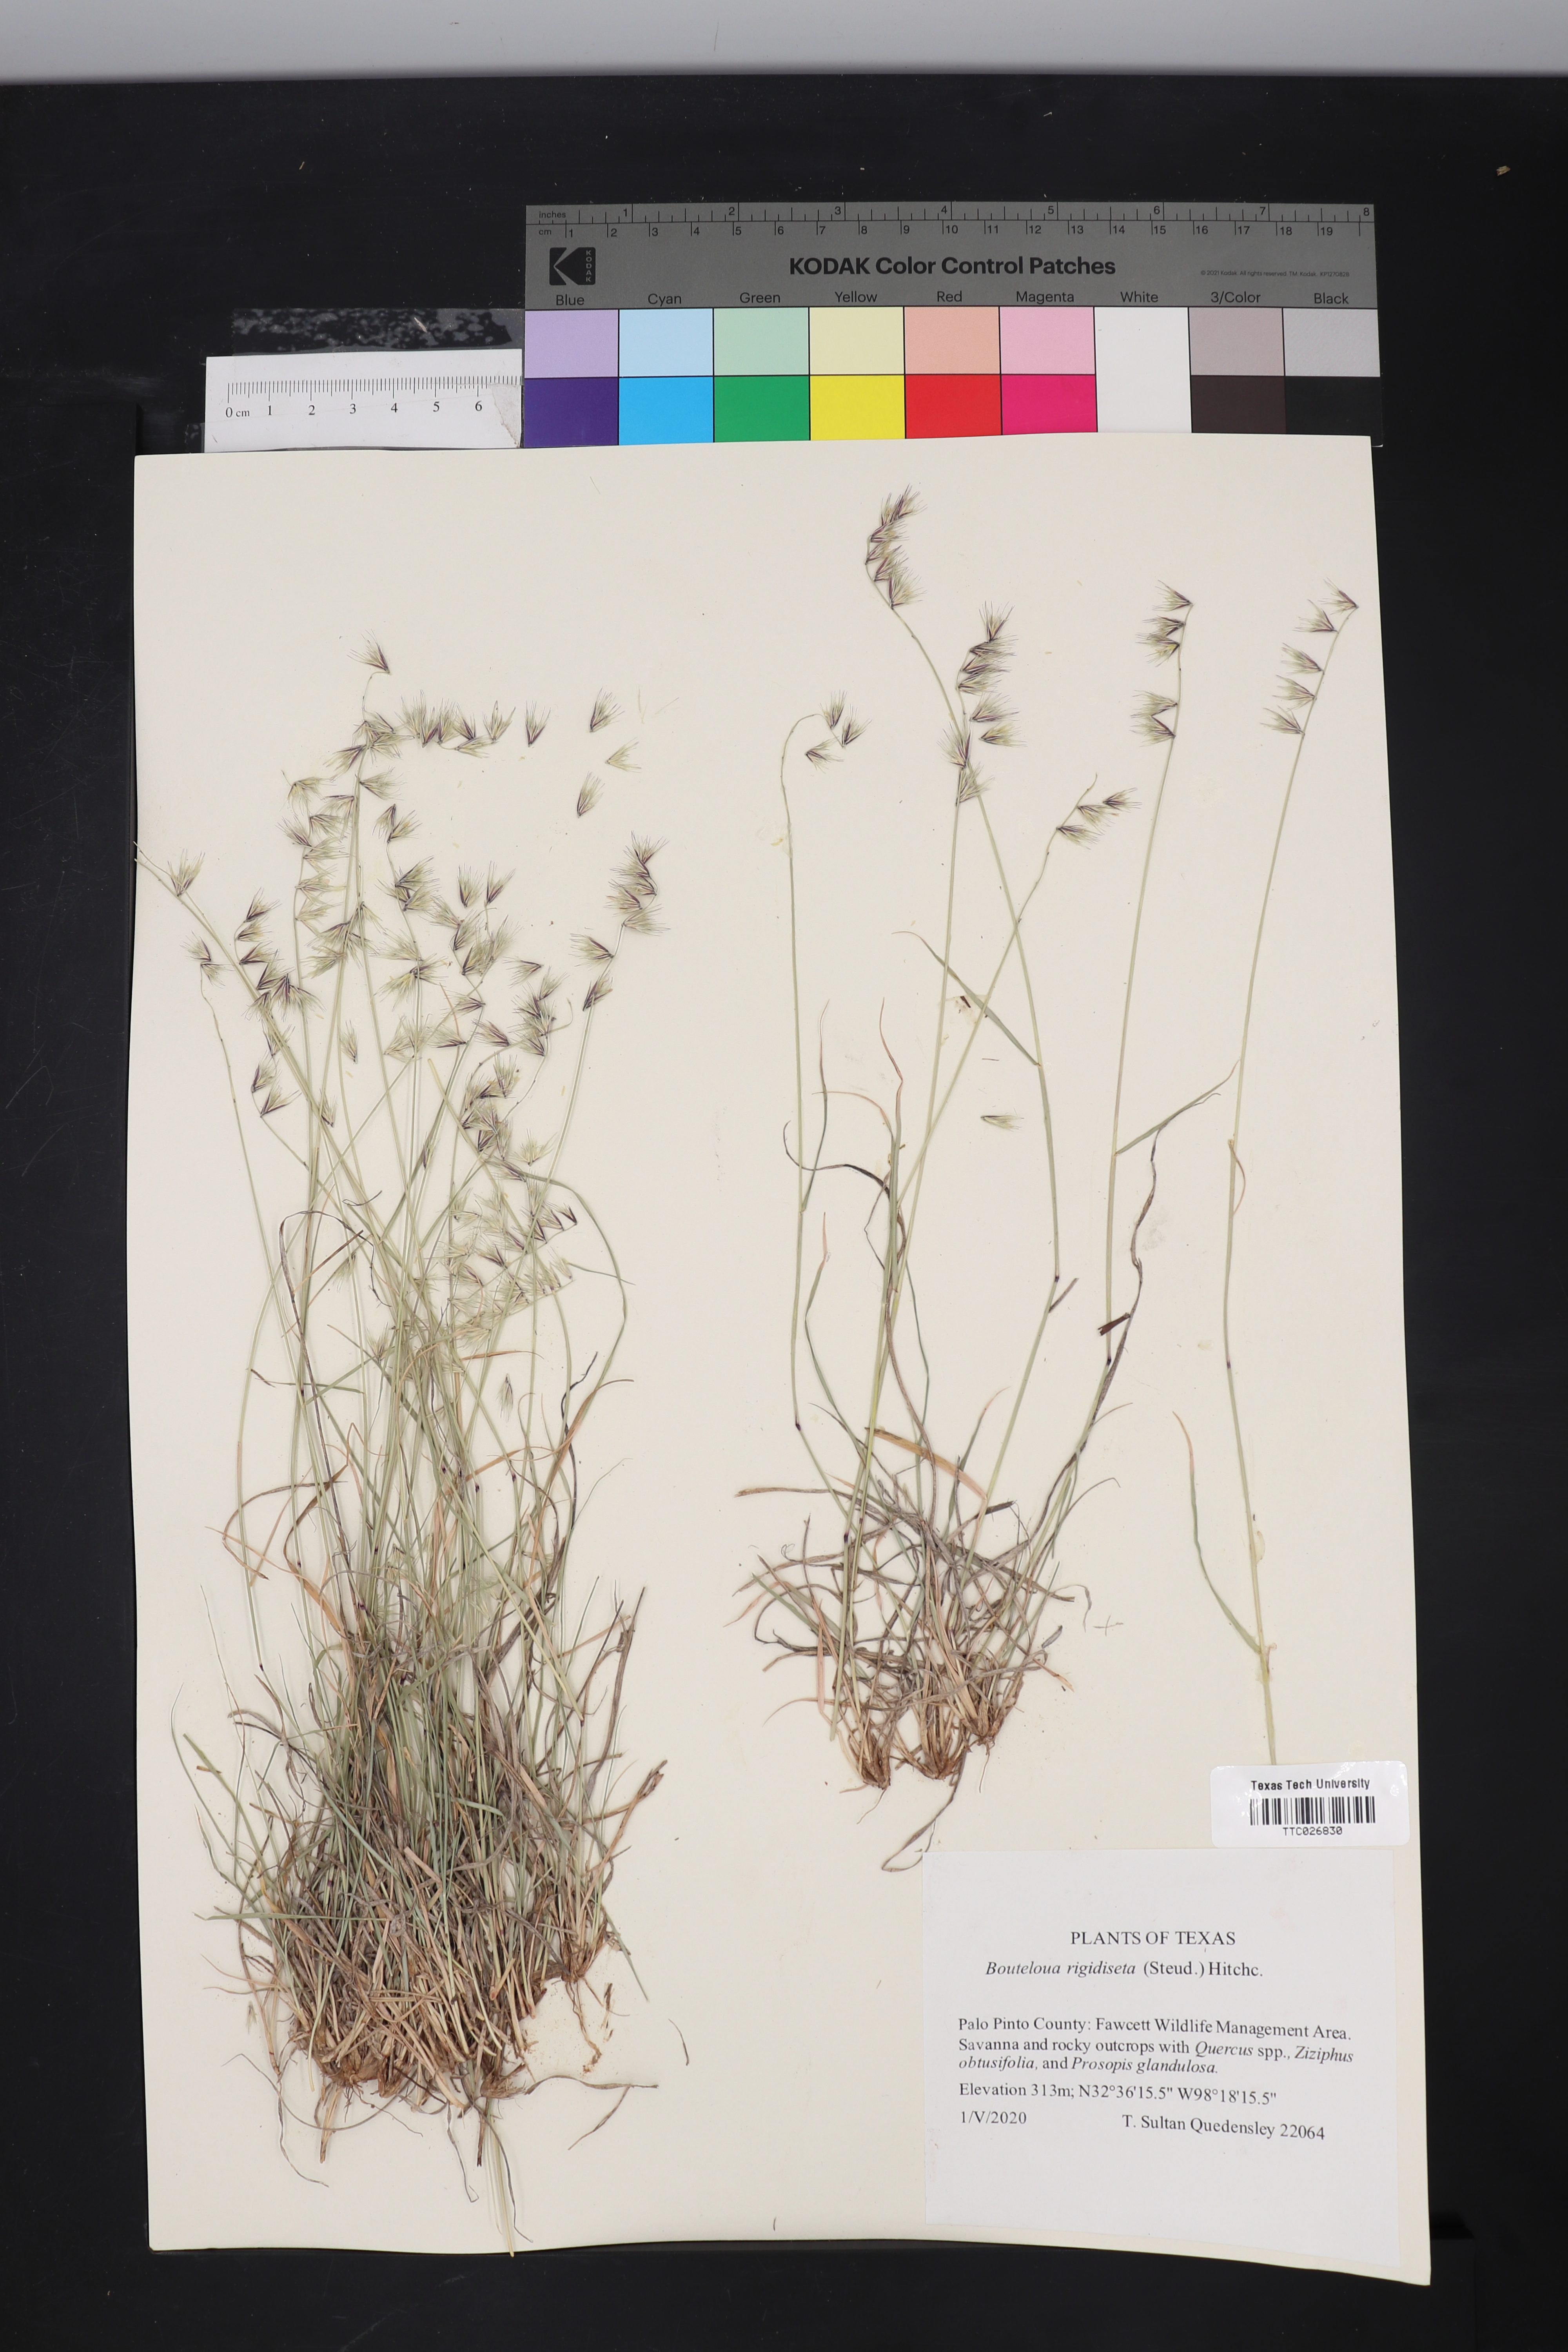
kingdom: Plantae
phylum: Tracheophyta
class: Liliopsida
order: Poales
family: Poaceae
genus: Bouteloua
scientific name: Bouteloua rigidiseta
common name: Texas grama
